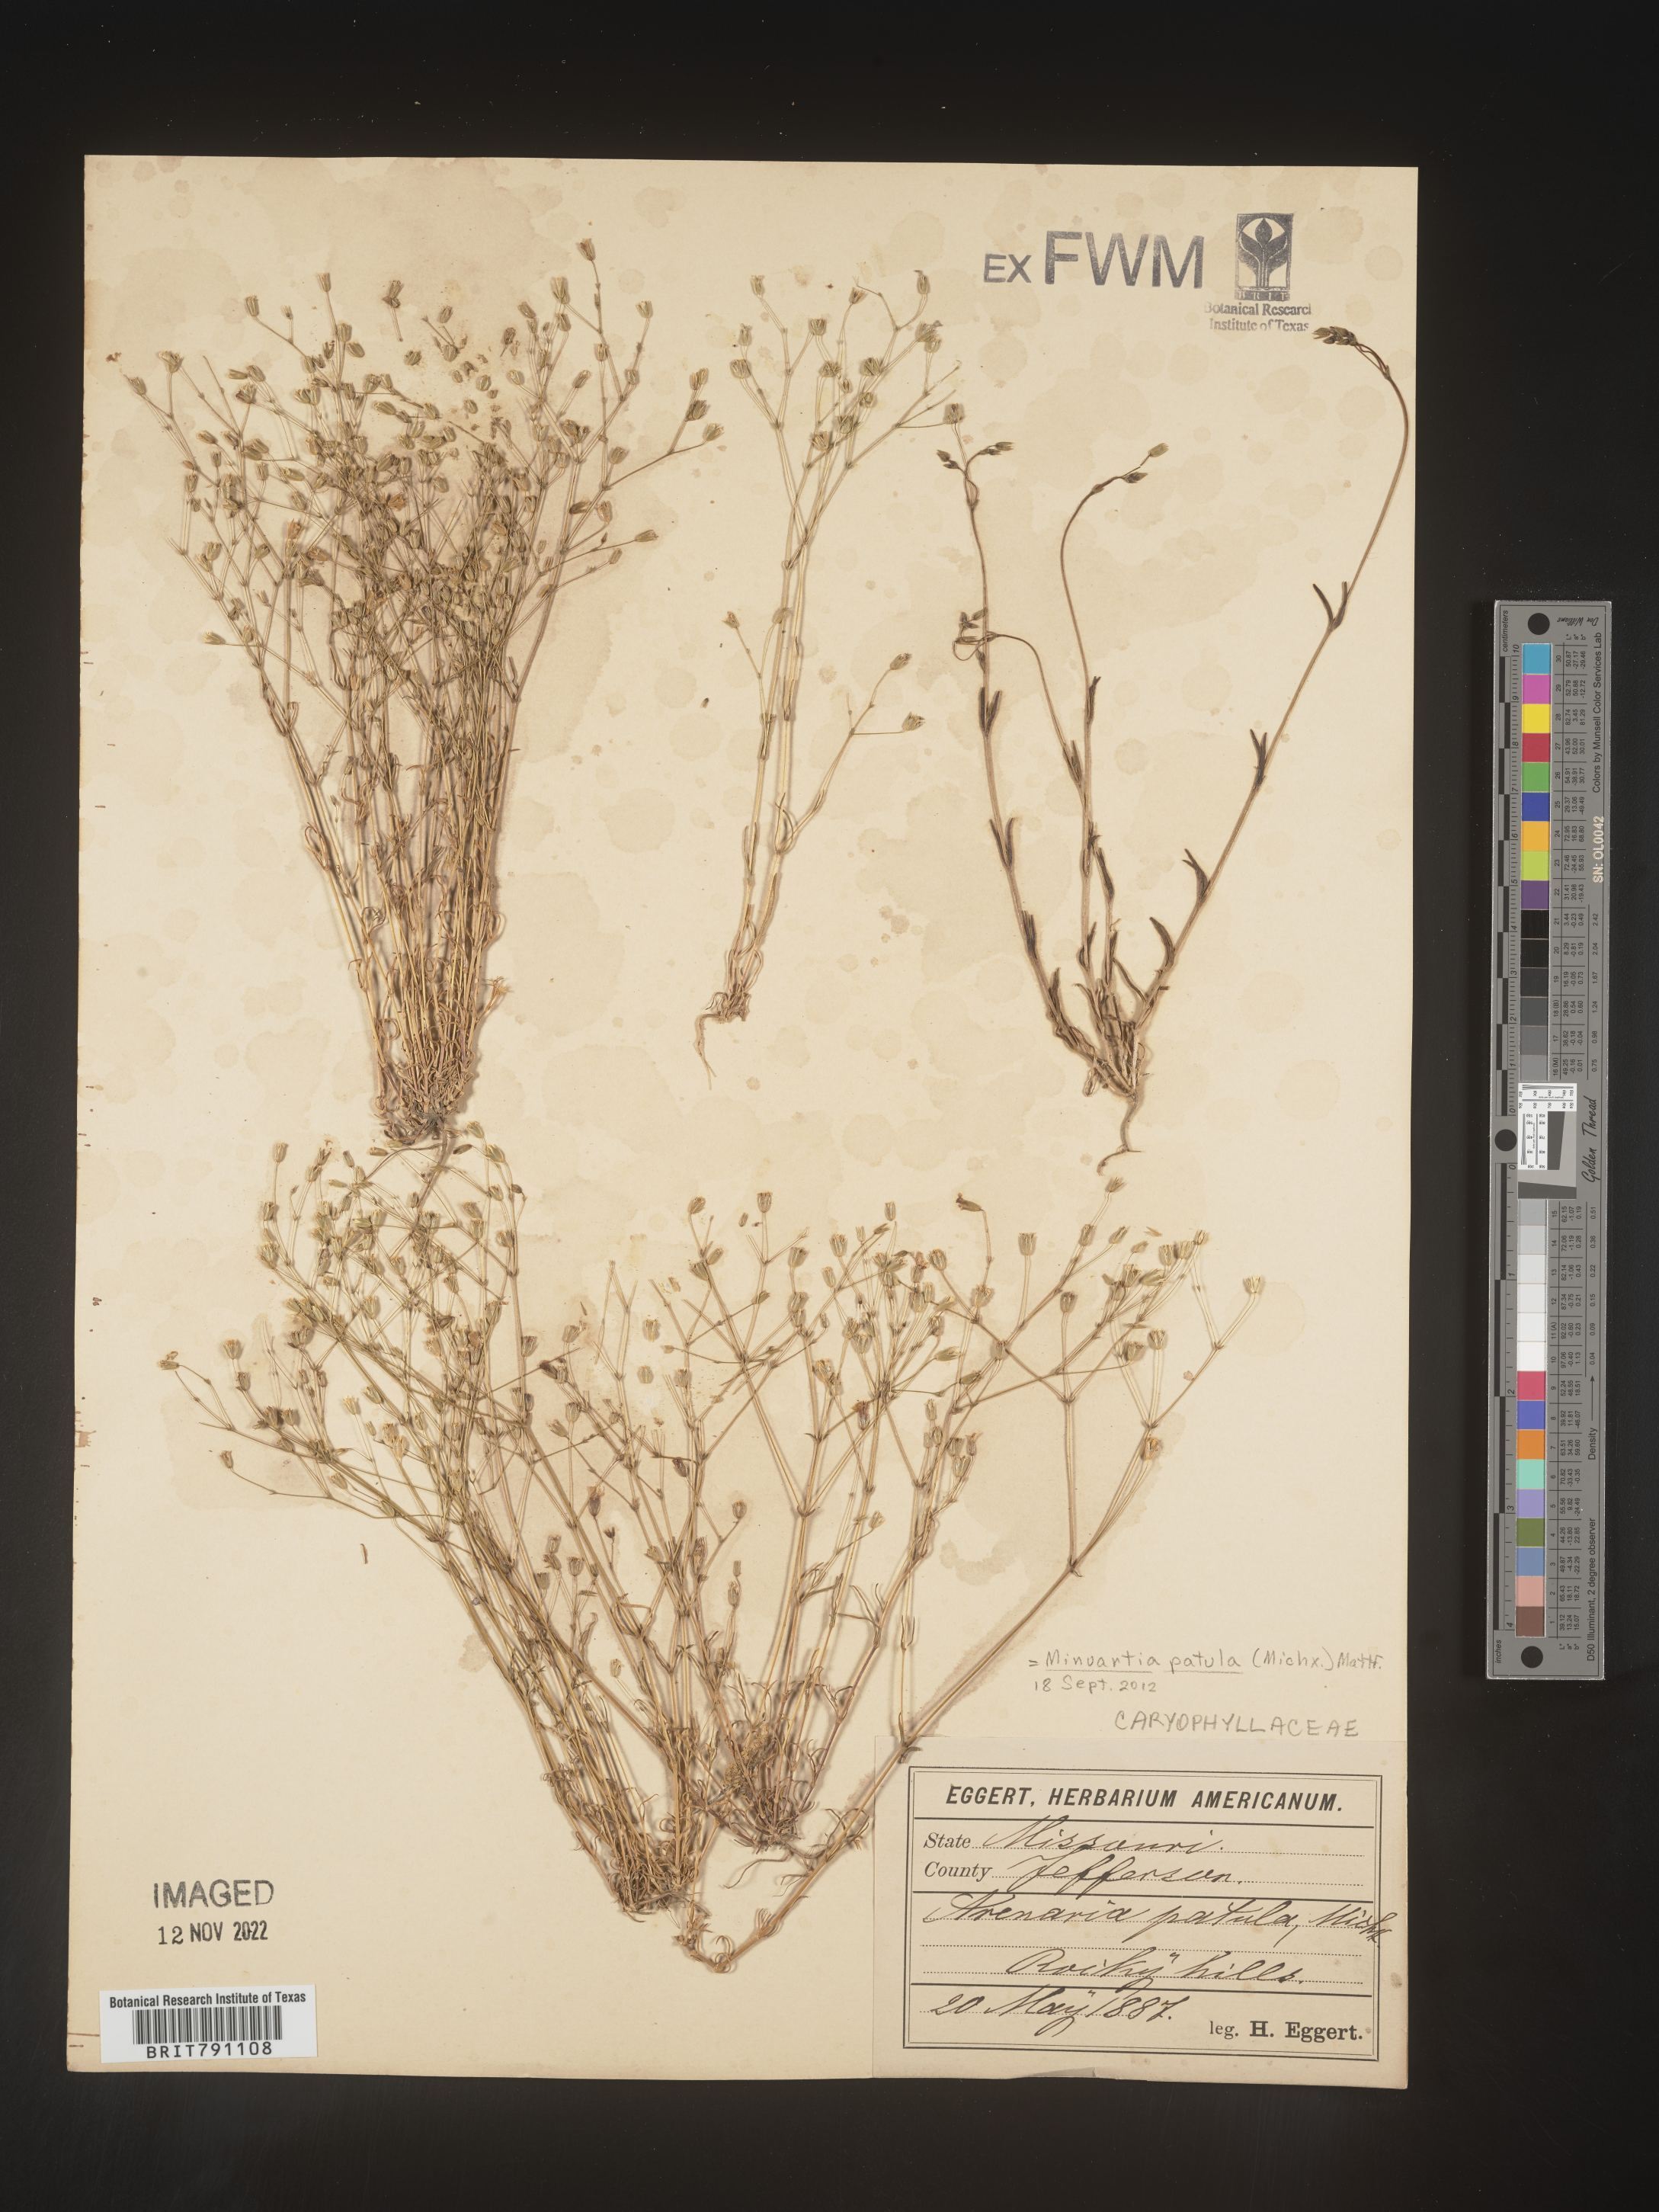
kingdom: Plantae
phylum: Tracheophyta
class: Magnoliopsida
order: Caryophyllales
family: Caryophyllaceae
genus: Mononeuria
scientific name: Mononeuria patula
